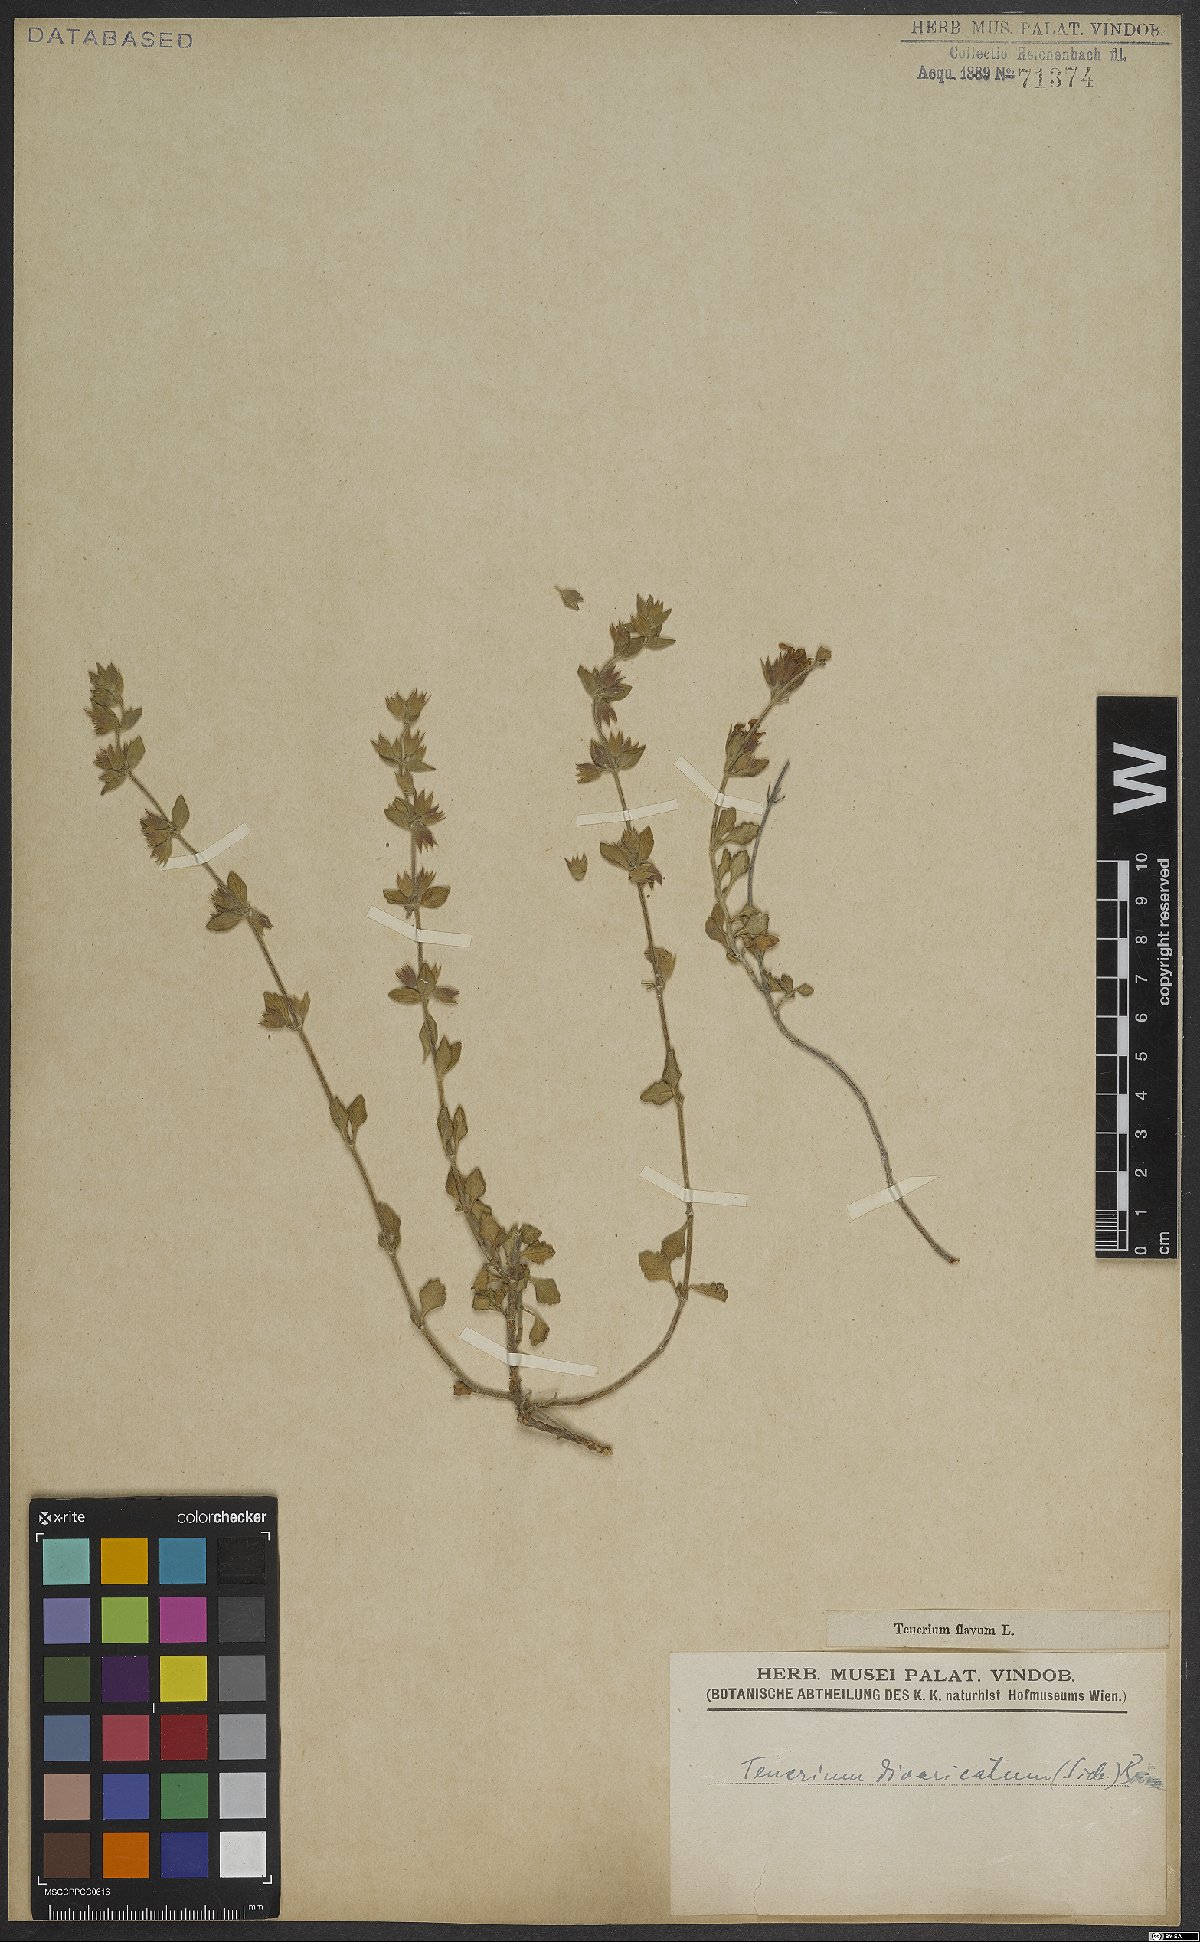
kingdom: Plantae
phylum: Tracheophyta
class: Magnoliopsida
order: Lamiales
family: Lamiaceae
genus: Teucrium
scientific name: Teucrium divaricatum
